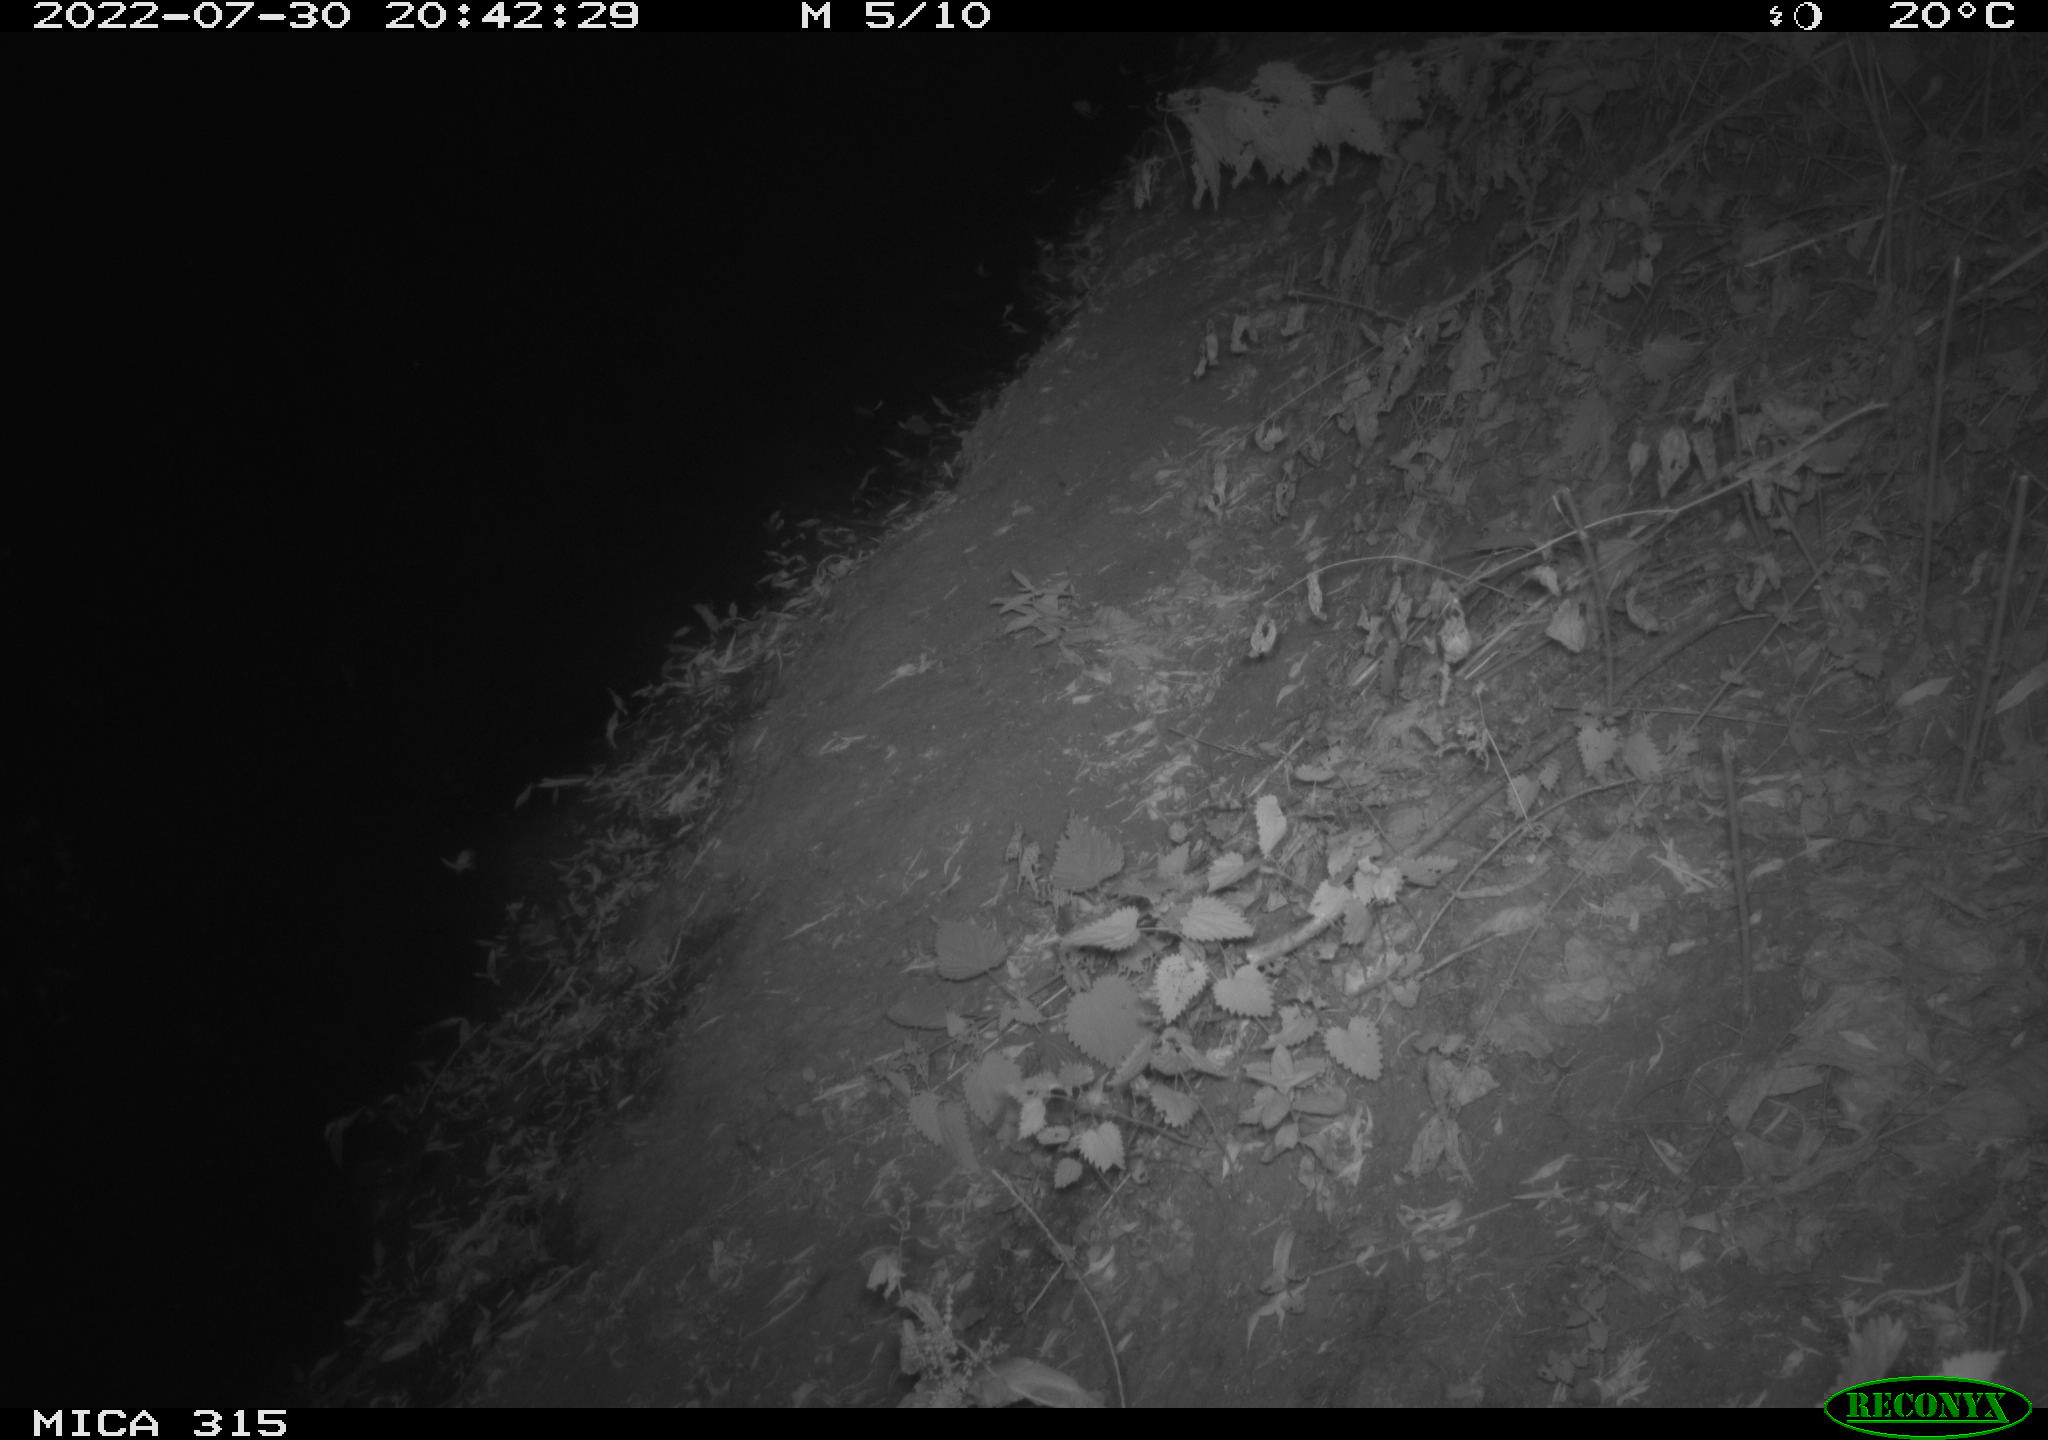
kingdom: Animalia
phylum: Chordata
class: Mammalia
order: Carnivora
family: Canidae
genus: Vulpes
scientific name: Vulpes vulpes
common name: Red fox
